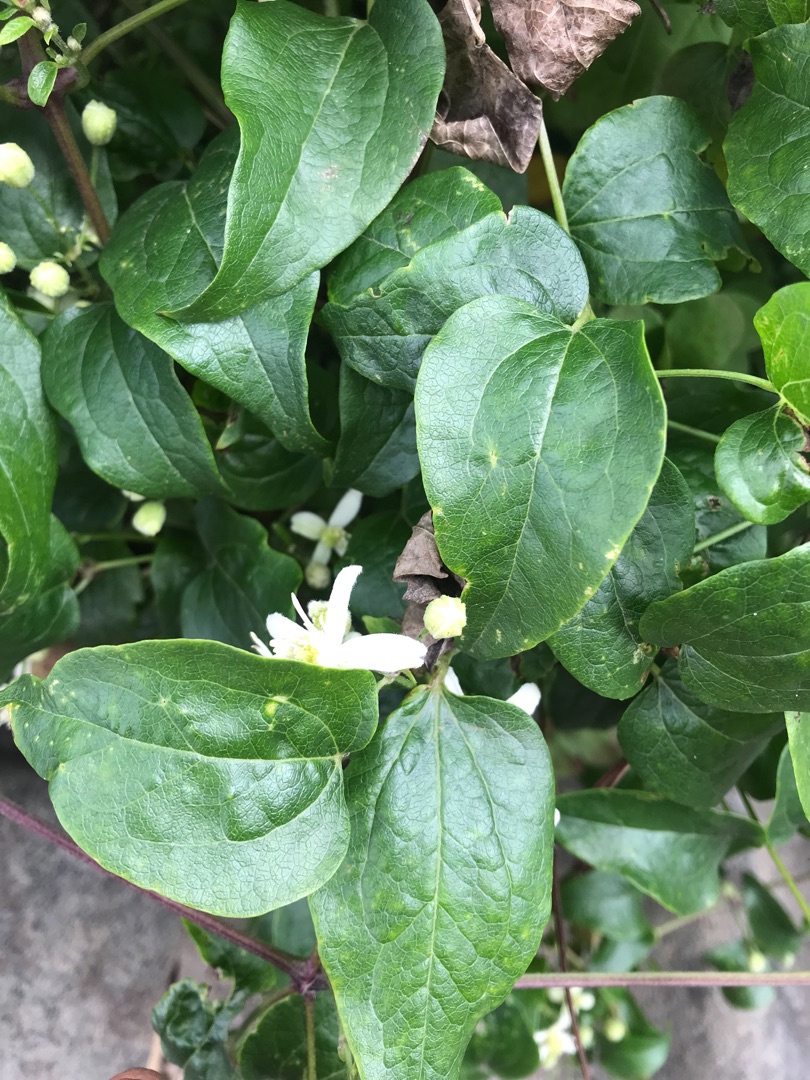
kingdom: Plantae
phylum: Tracheophyta
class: Magnoliopsida
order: Ranunculales
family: Ranunculaceae
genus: Clematis
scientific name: Clematis vitalba
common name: Skovranke
